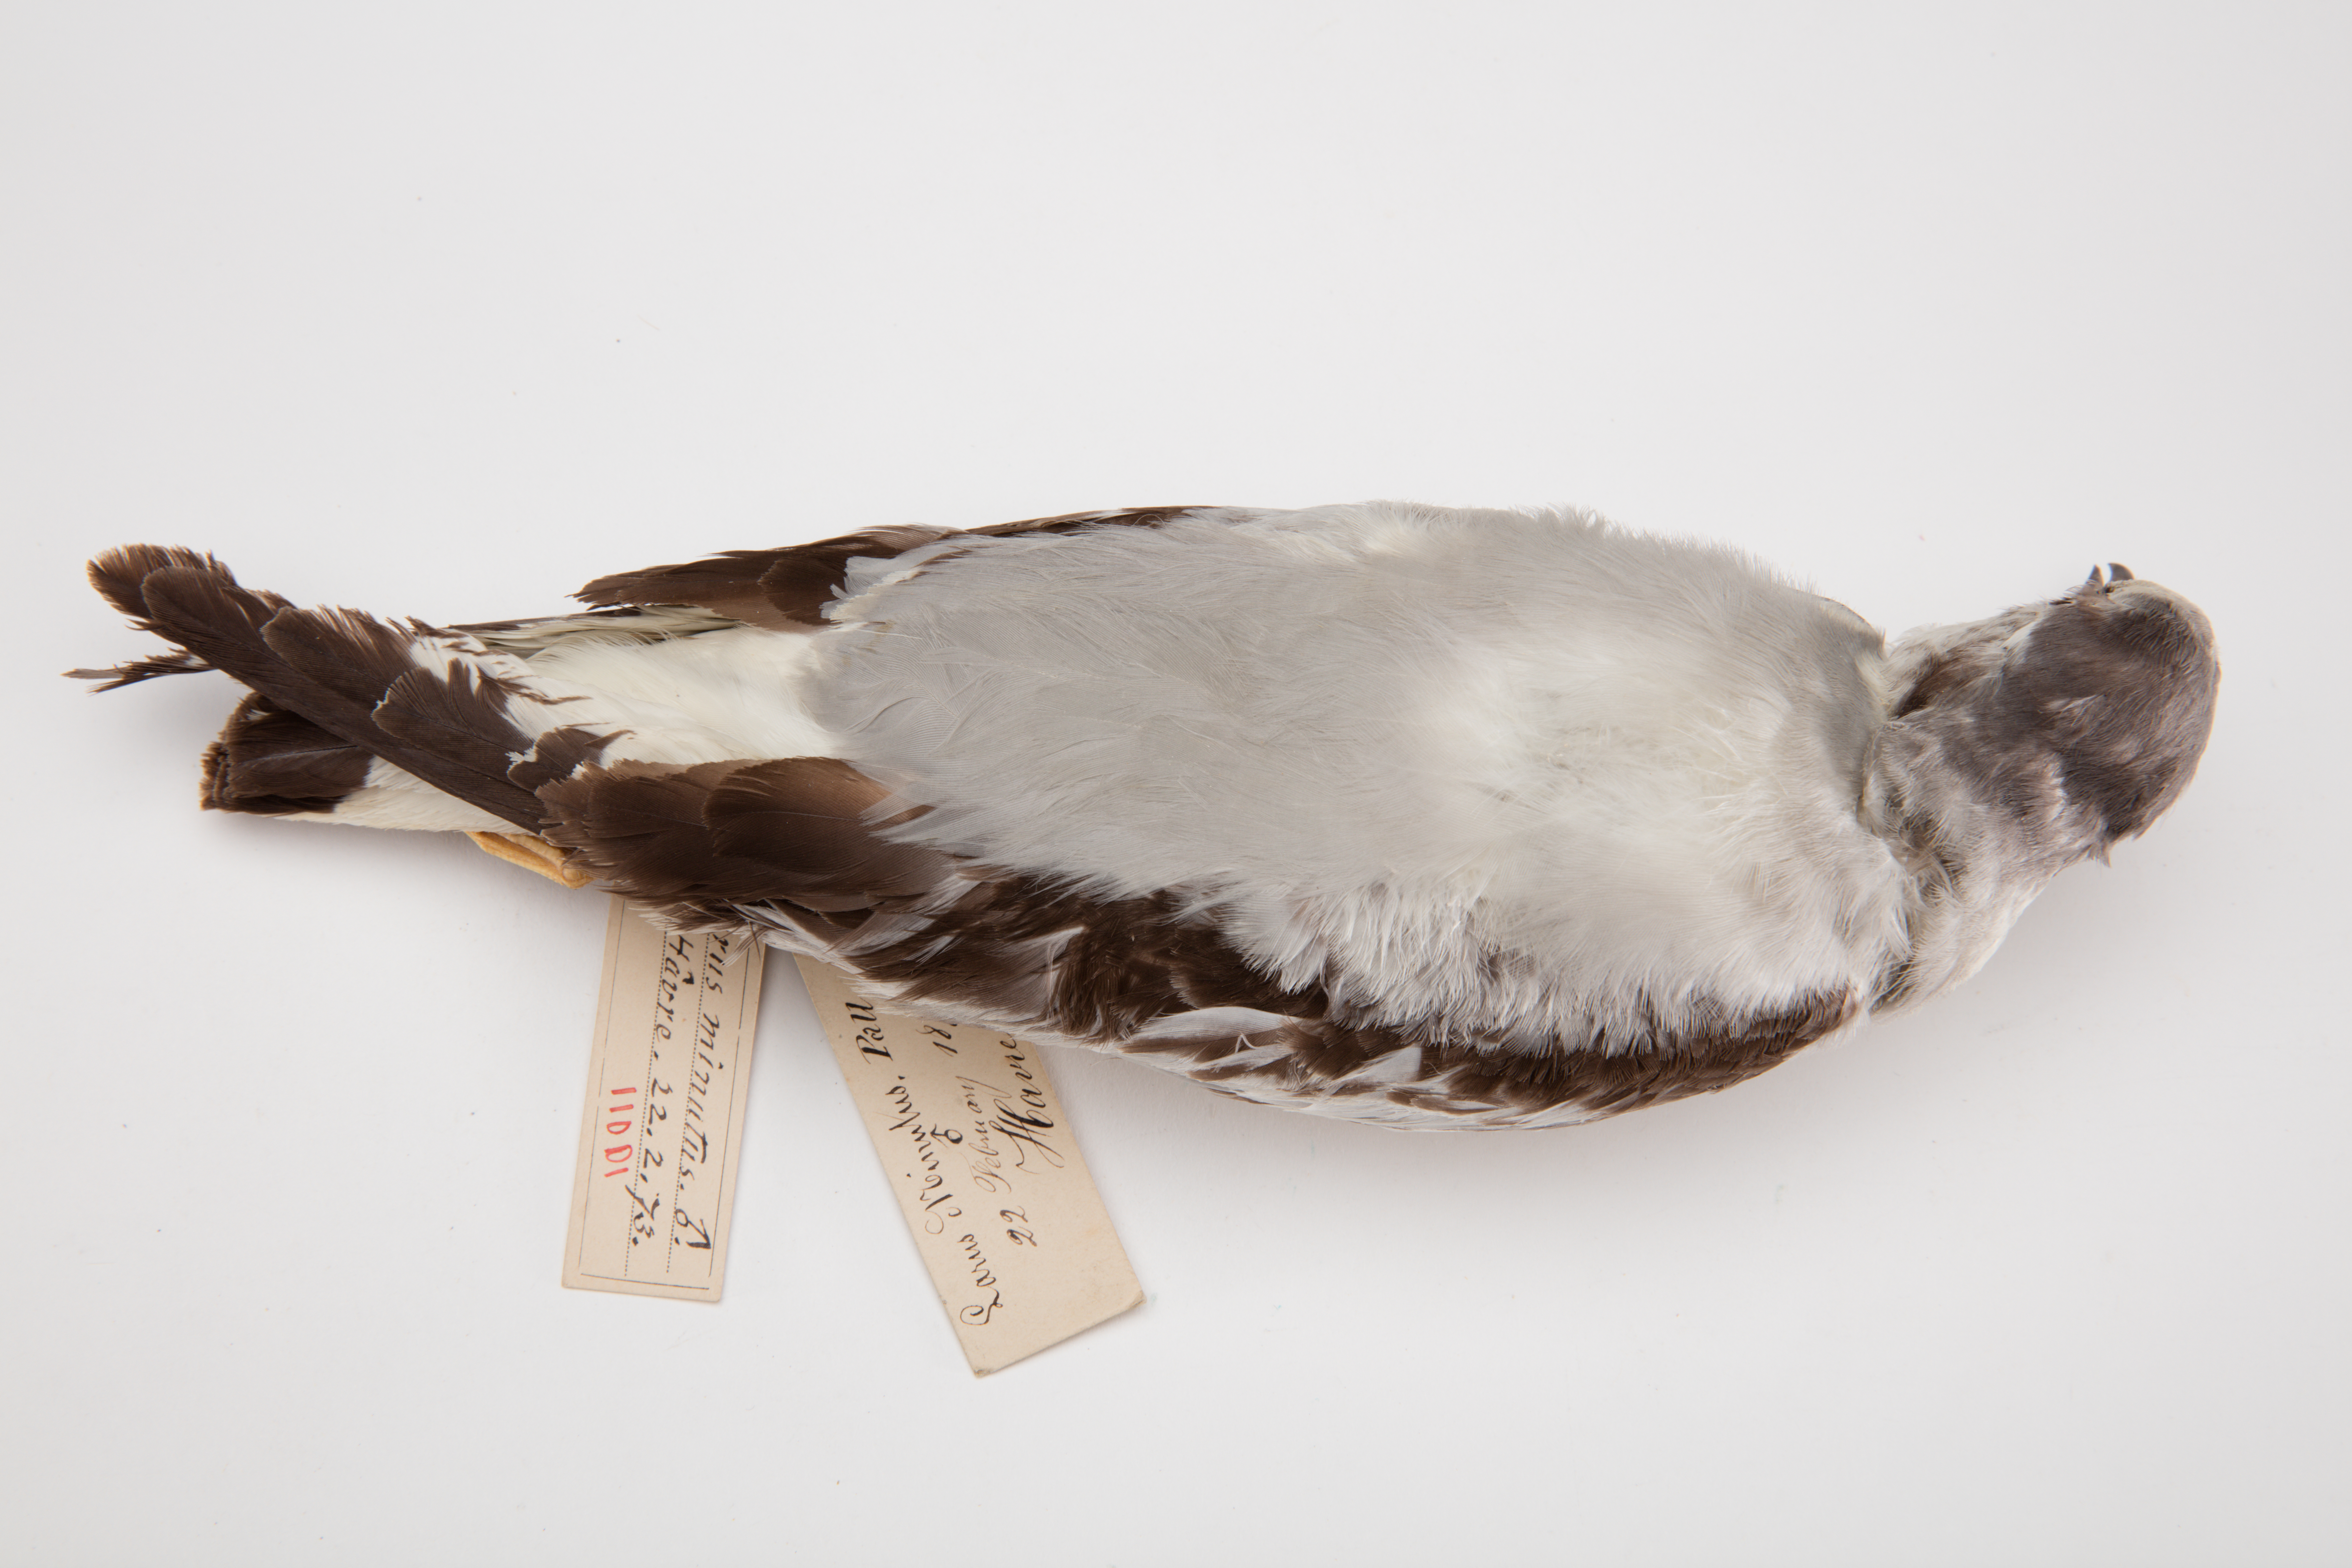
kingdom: Animalia
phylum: Chordata
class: Aves
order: Charadriiformes
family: Laridae
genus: Hydrocoloeus
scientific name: Hydrocoloeus minutus
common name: Little gull
